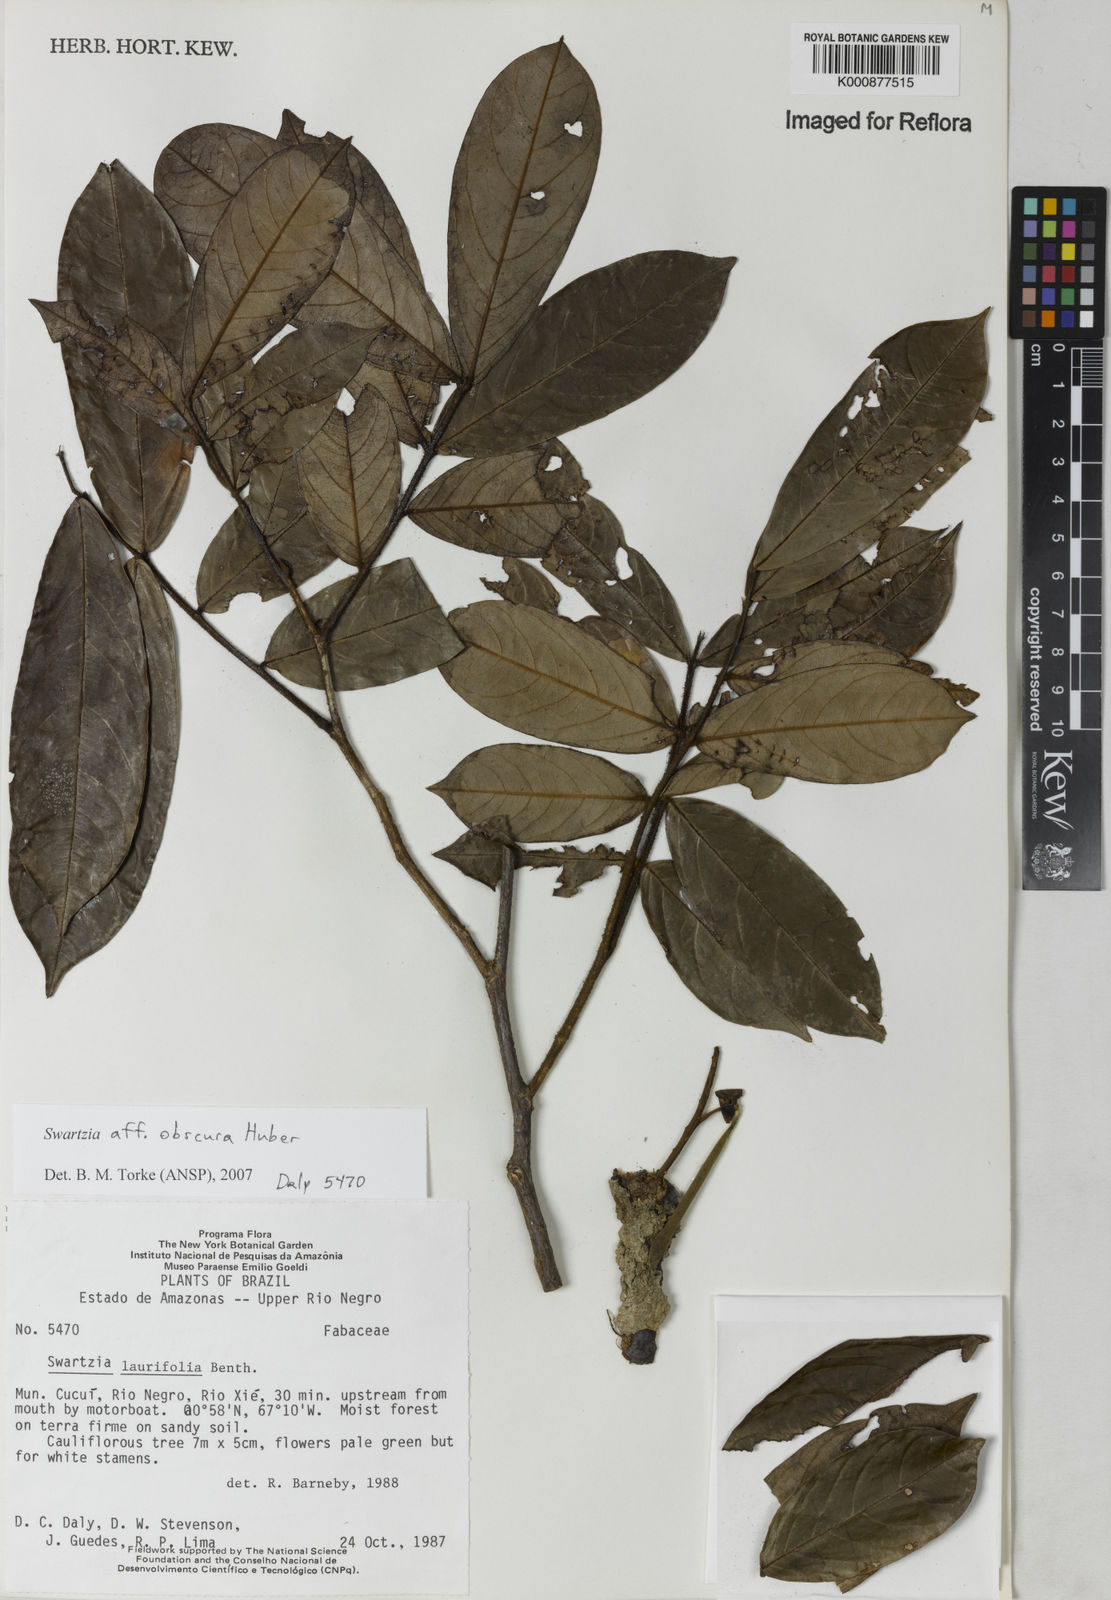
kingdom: Plantae
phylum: Tracheophyta
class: Magnoliopsida
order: Fabales
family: Fabaceae
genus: Swartzia
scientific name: Swartzia obscura
